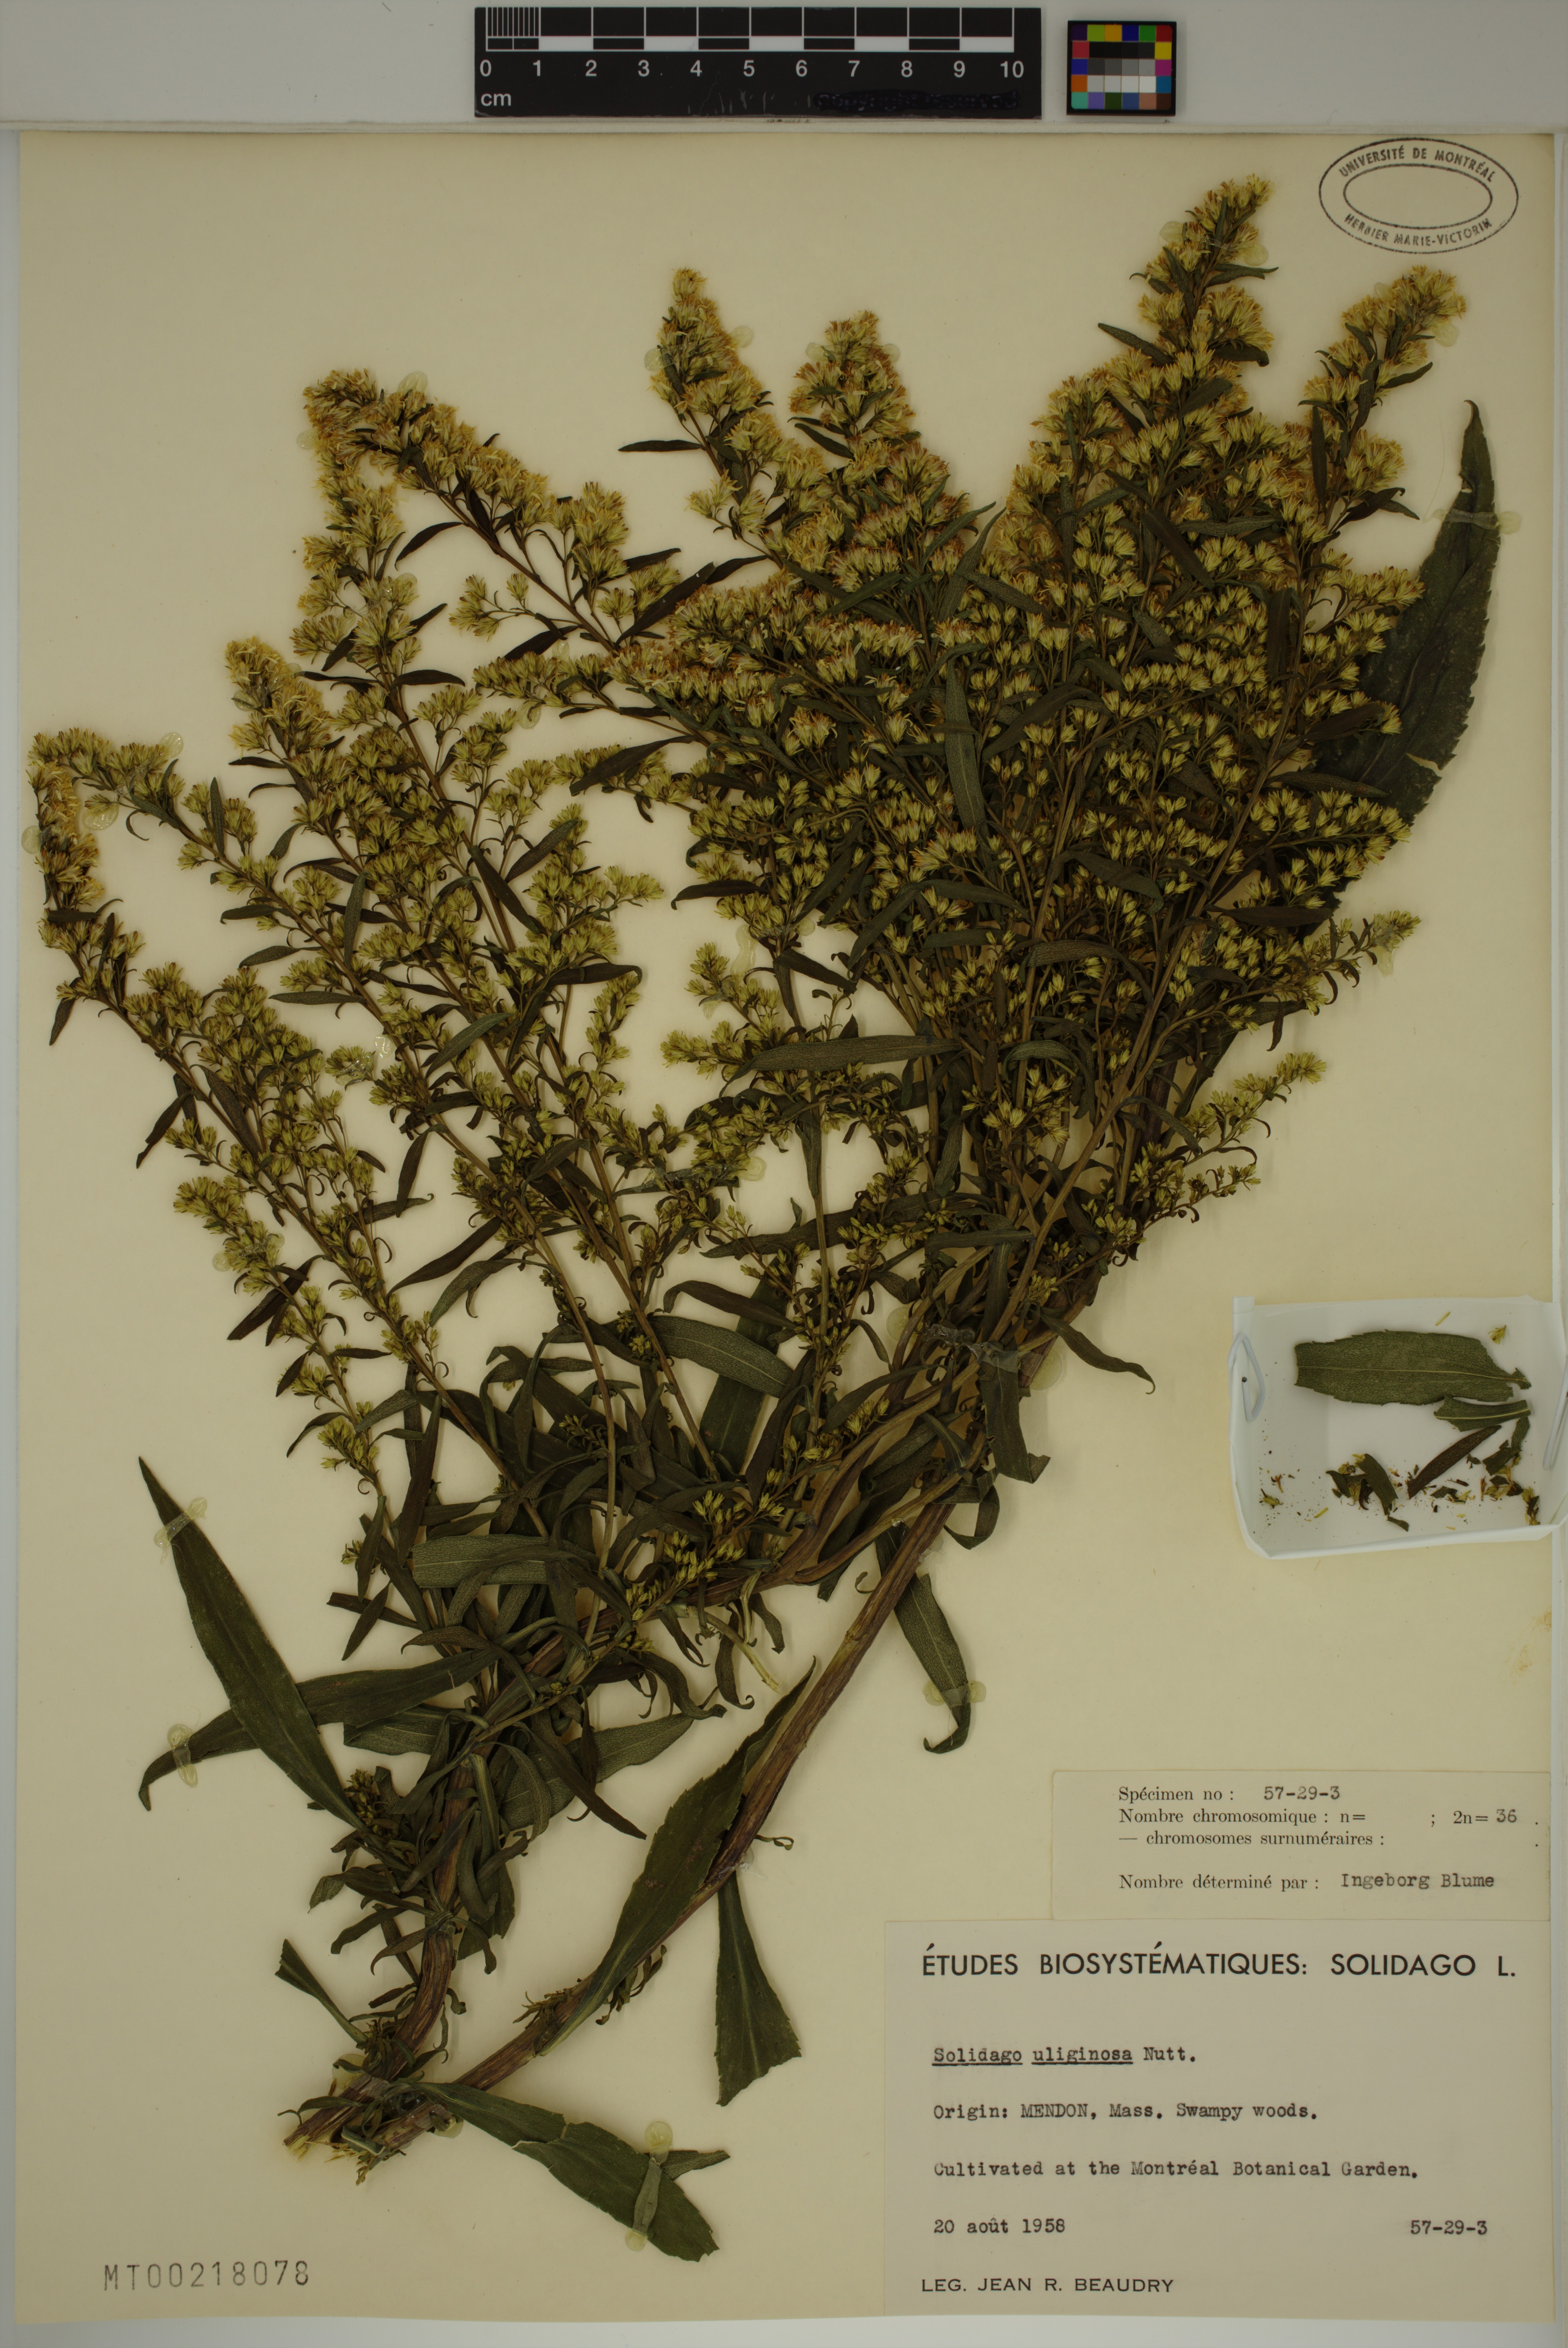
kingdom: Plantae
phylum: Tracheophyta
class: Magnoliopsida
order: Asterales
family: Asteraceae
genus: Solidago
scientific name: Solidago uliginosa
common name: Bog goldenrod
